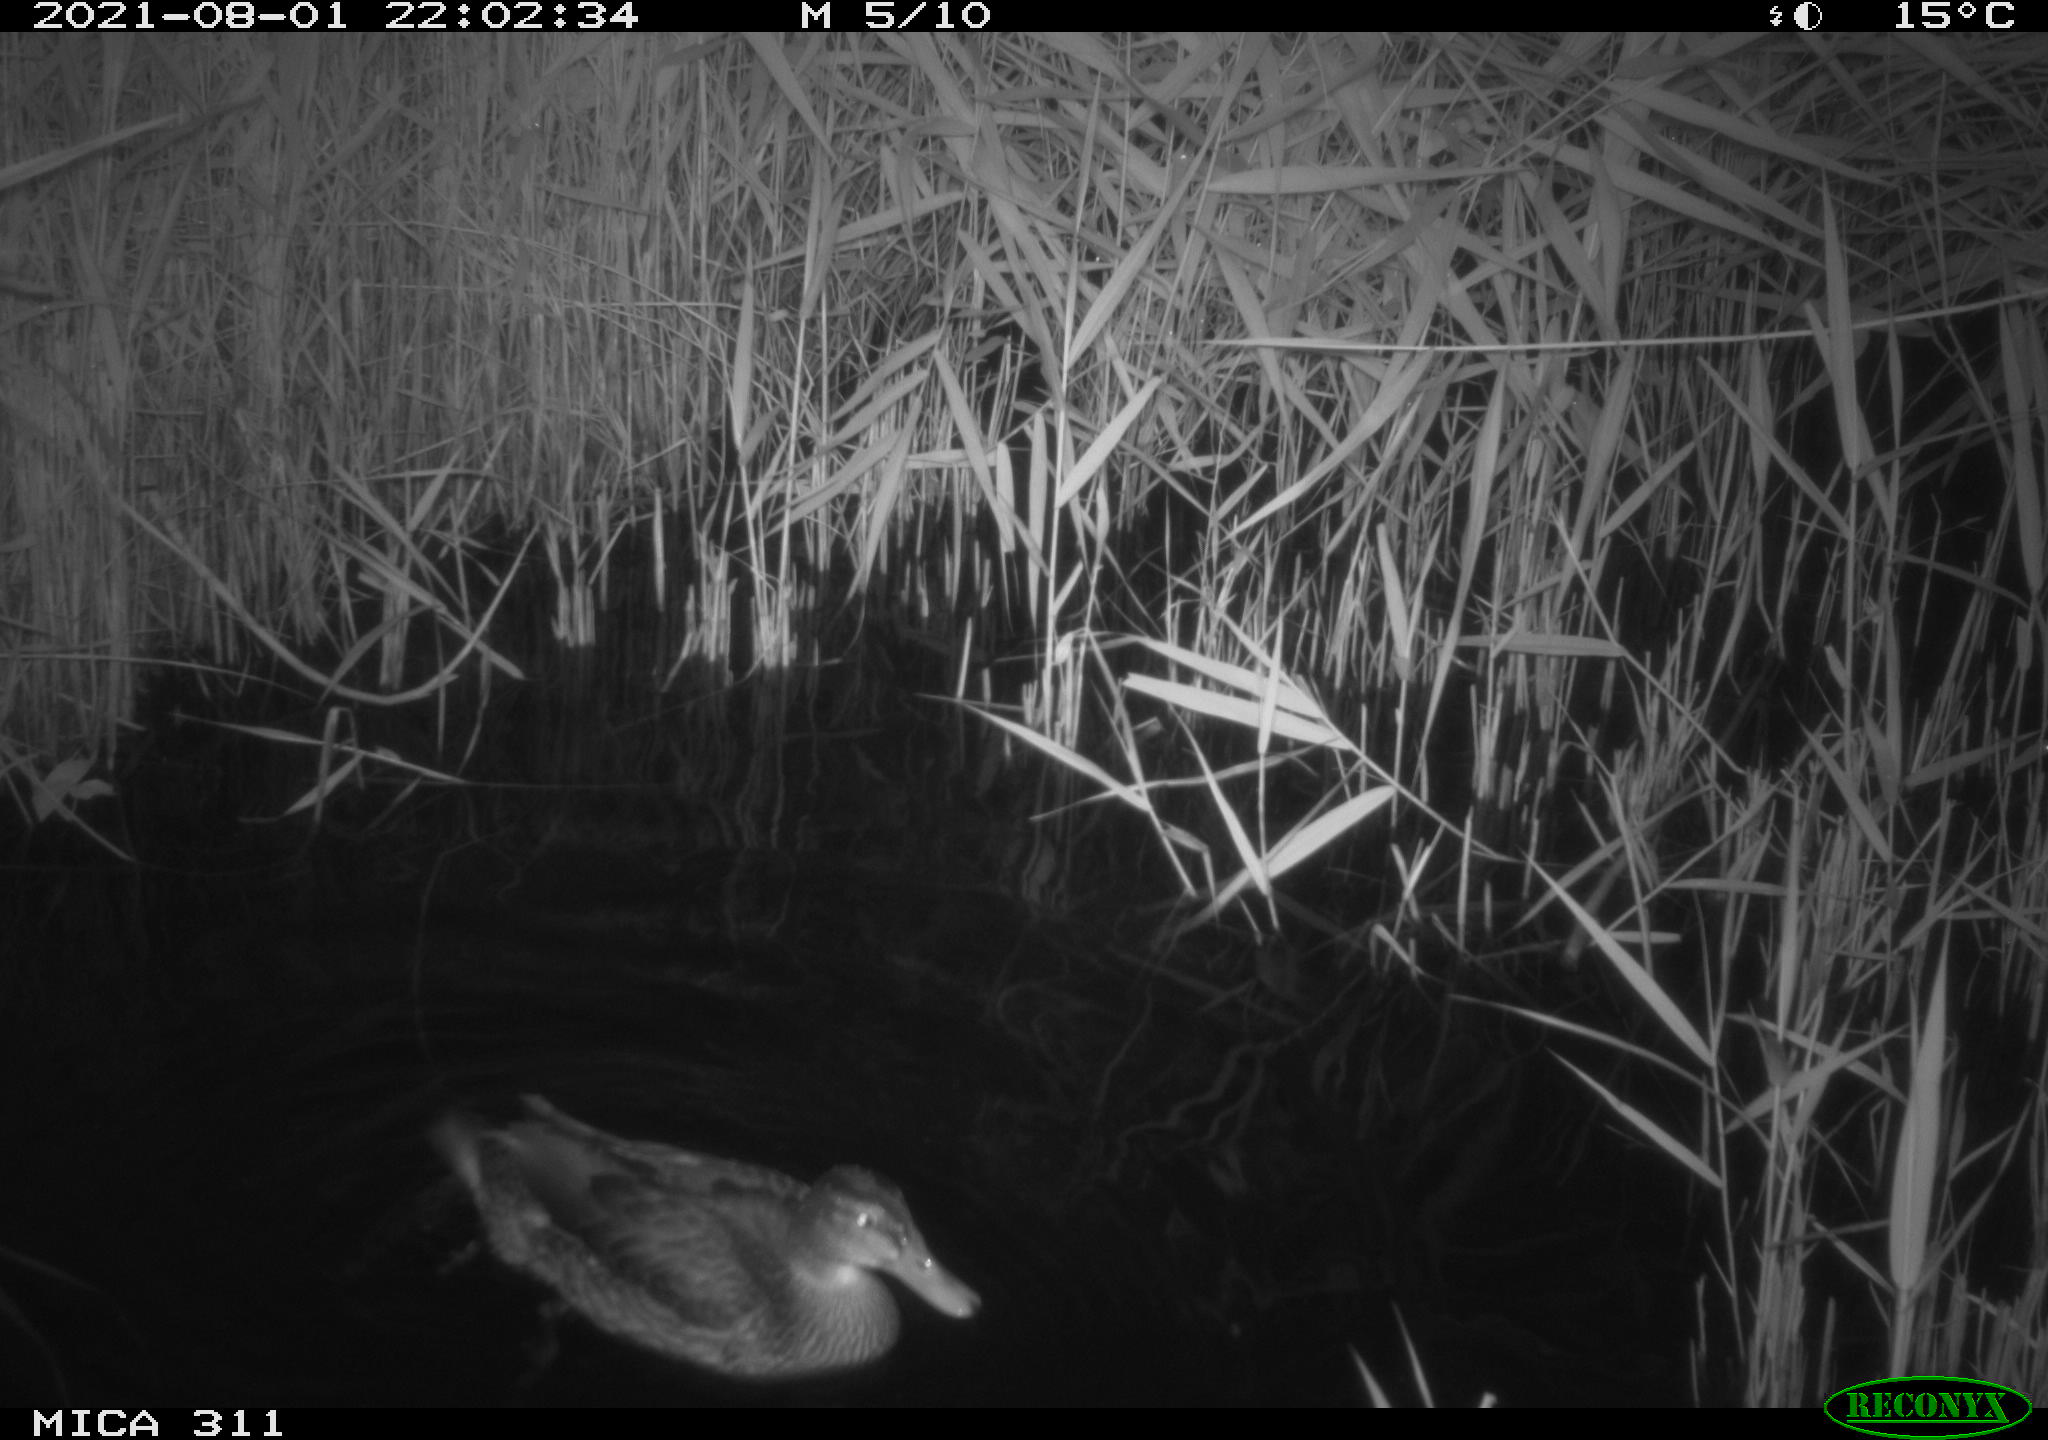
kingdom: Animalia
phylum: Chordata
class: Mammalia
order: Rodentia
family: Muridae
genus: Rattus
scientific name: Rattus norvegicus
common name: Brown rat
